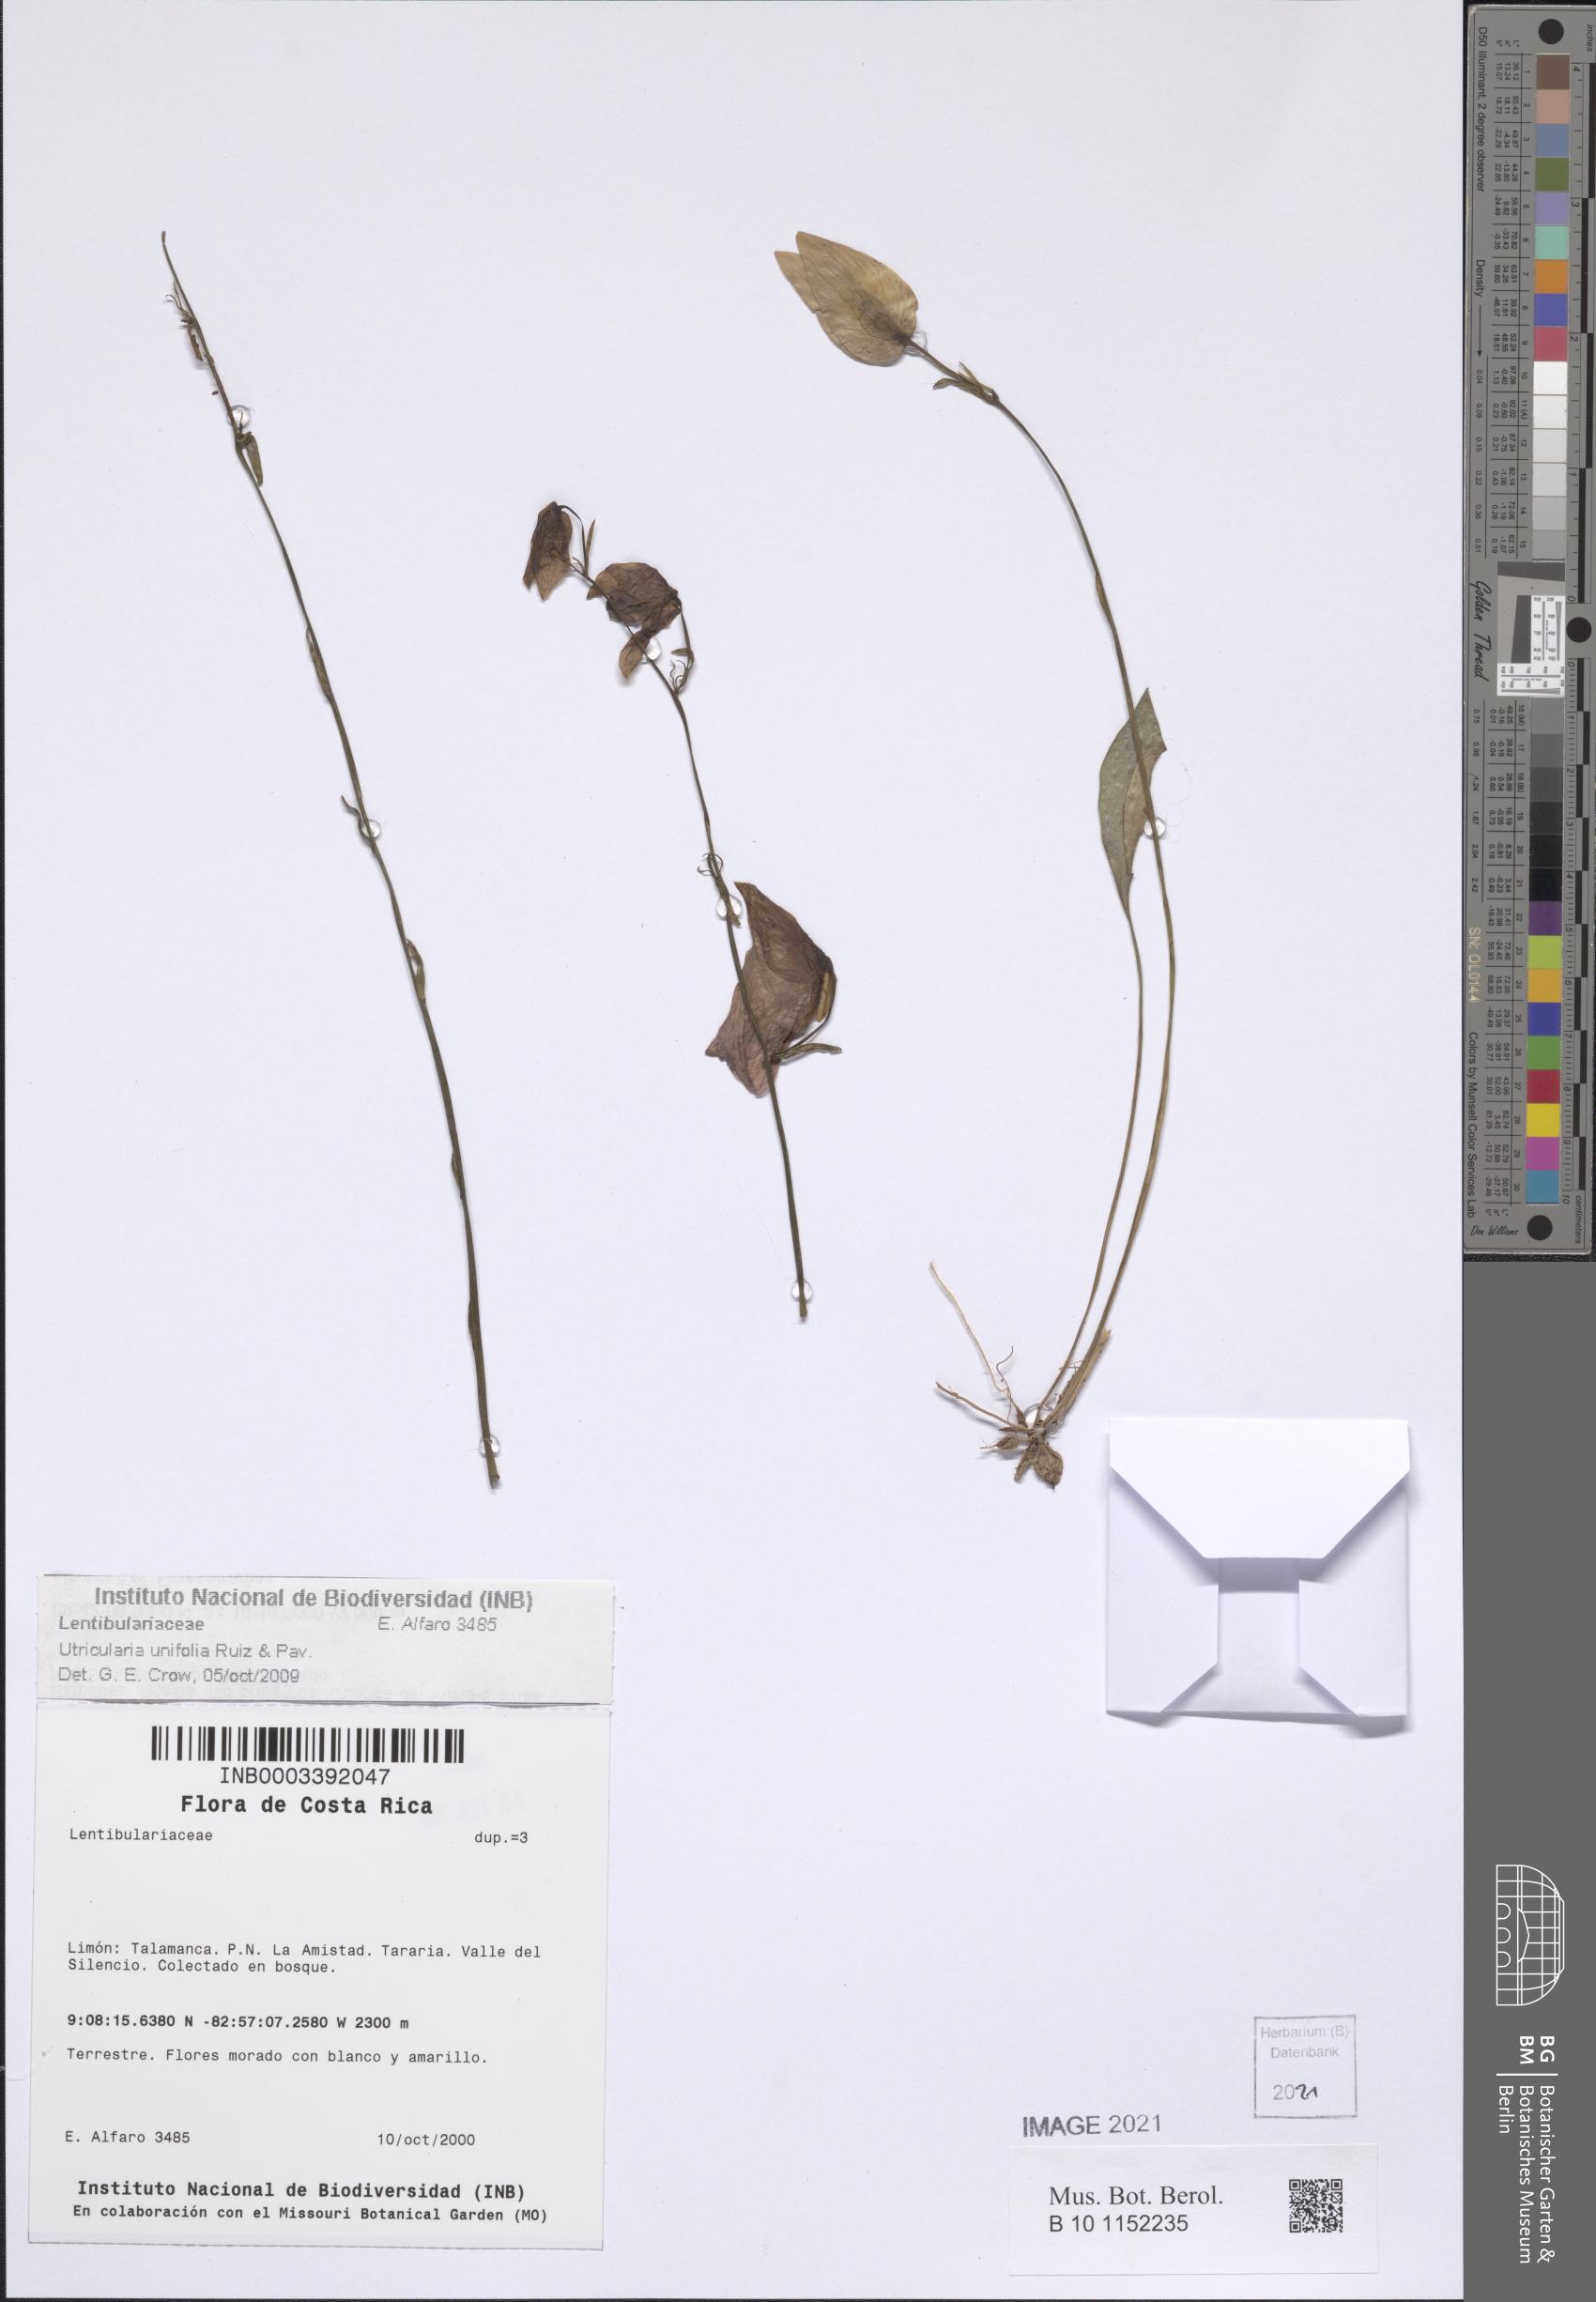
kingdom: Plantae
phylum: Tracheophyta
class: Magnoliopsida
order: Lamiales
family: Lentibulariaceae
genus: Utricularia
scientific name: Utricularia unifolia
